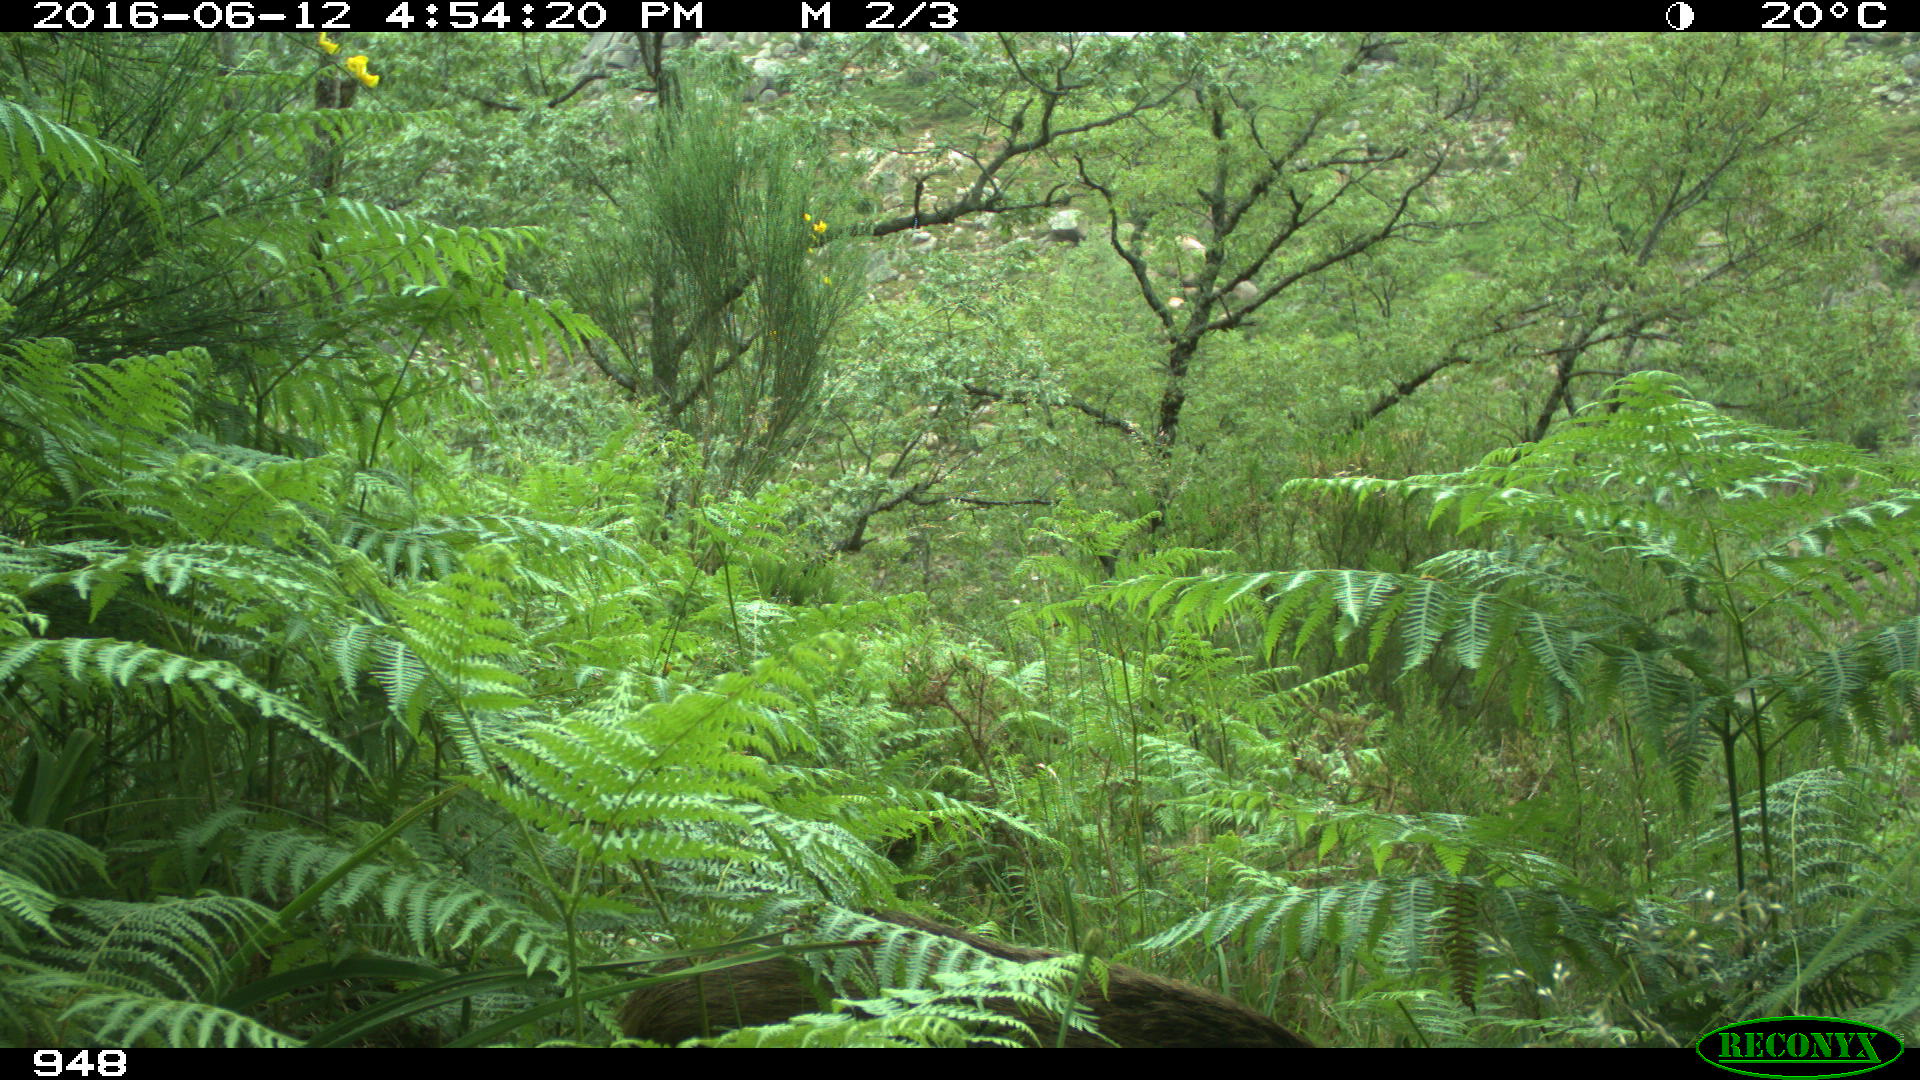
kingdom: Animalia
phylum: Chordata
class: Mammalia
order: Artiodactyla
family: Suidae
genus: Sus
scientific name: Sus scrofa
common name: Wild boar
